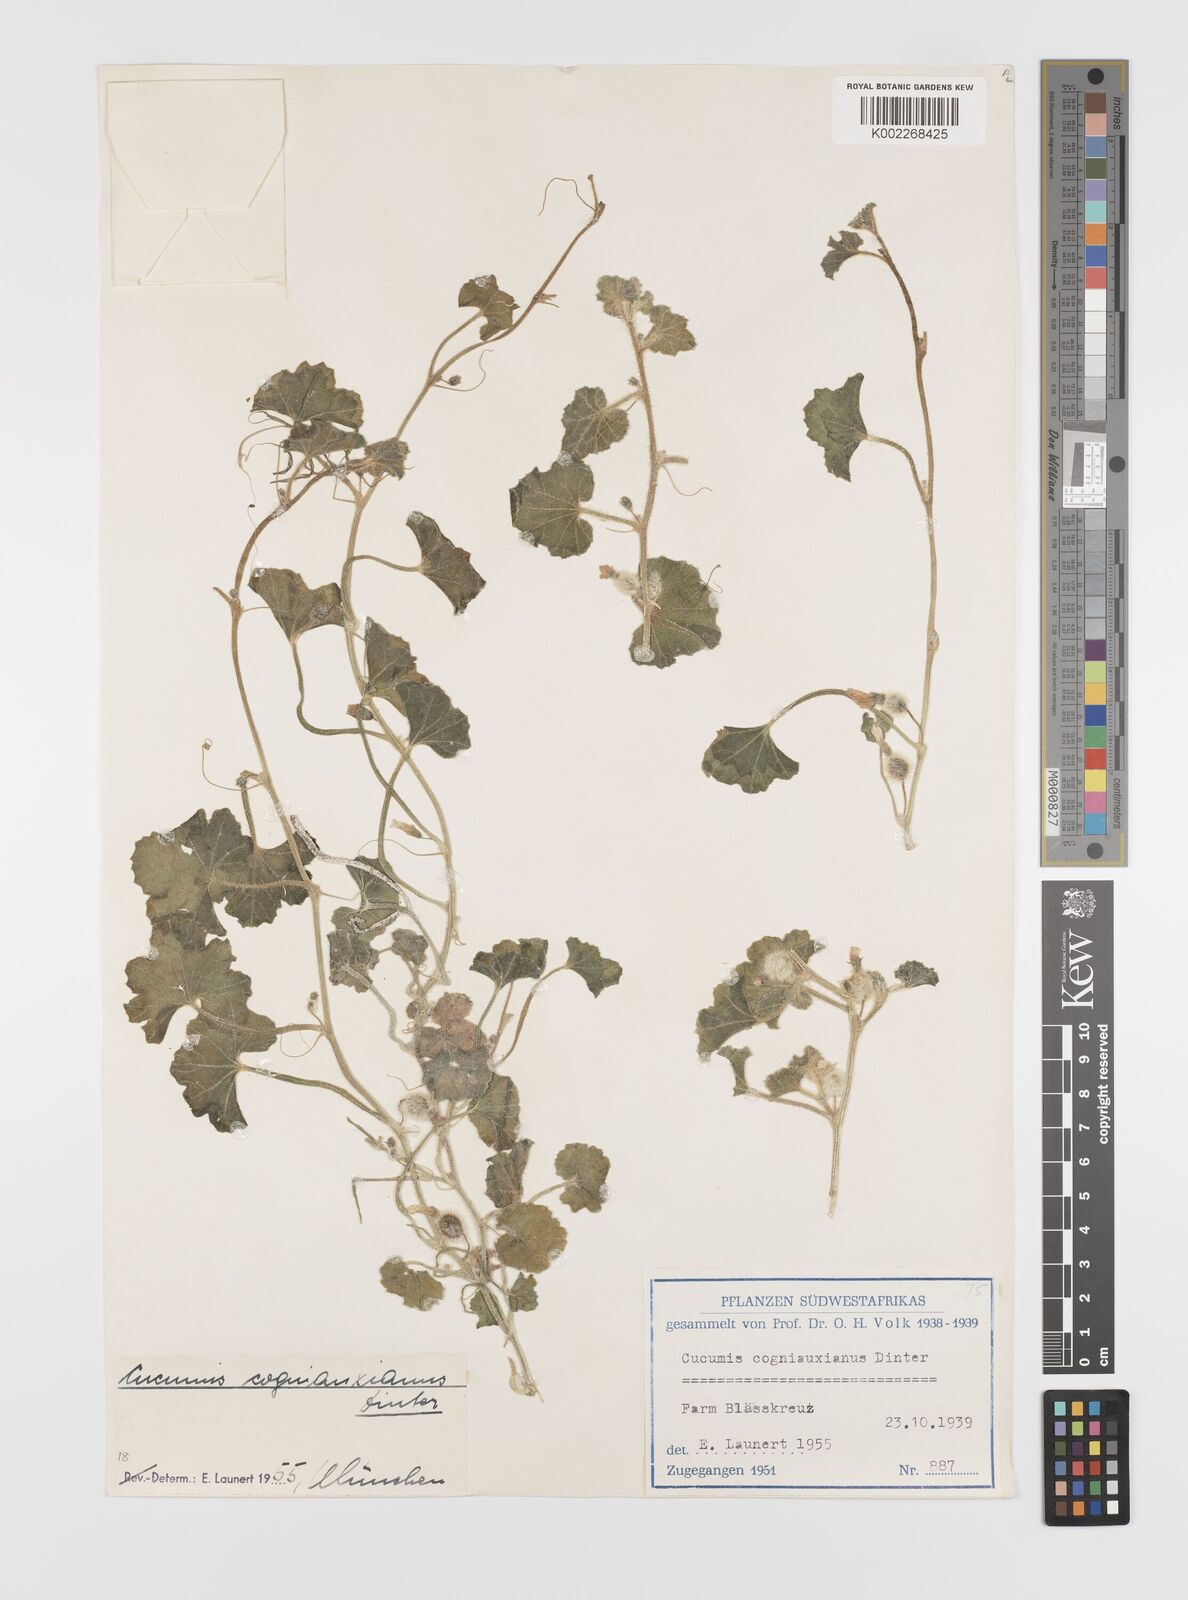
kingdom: Plantae
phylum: Tracheophyta
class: Magnoliopsida
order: Cucurbitales
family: Cucurbitaceae
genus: Cucumis
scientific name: Cucumis sagittatus
